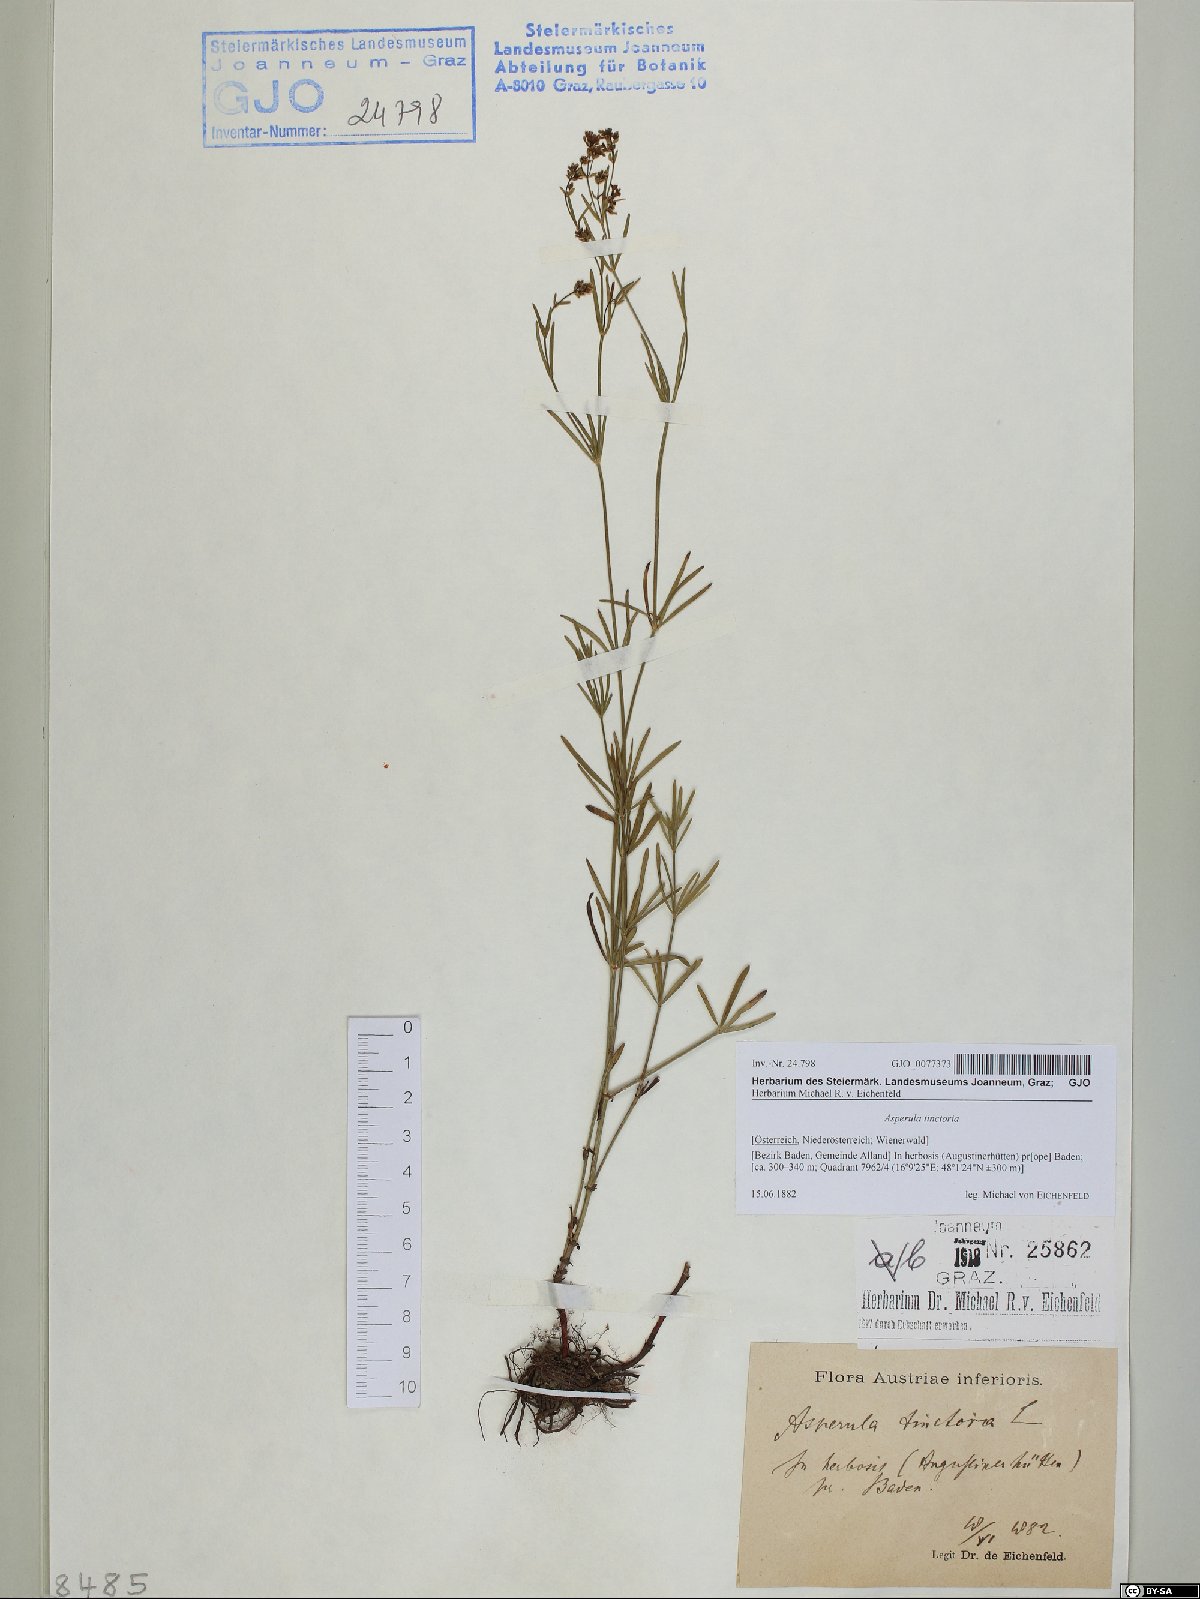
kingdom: Plantae
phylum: Tracheophyta
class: Magnoliopsida
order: Gentianales
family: Rubiaceae
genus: Asperula
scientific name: Asperula tinctoria
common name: Dyer's woodruff
